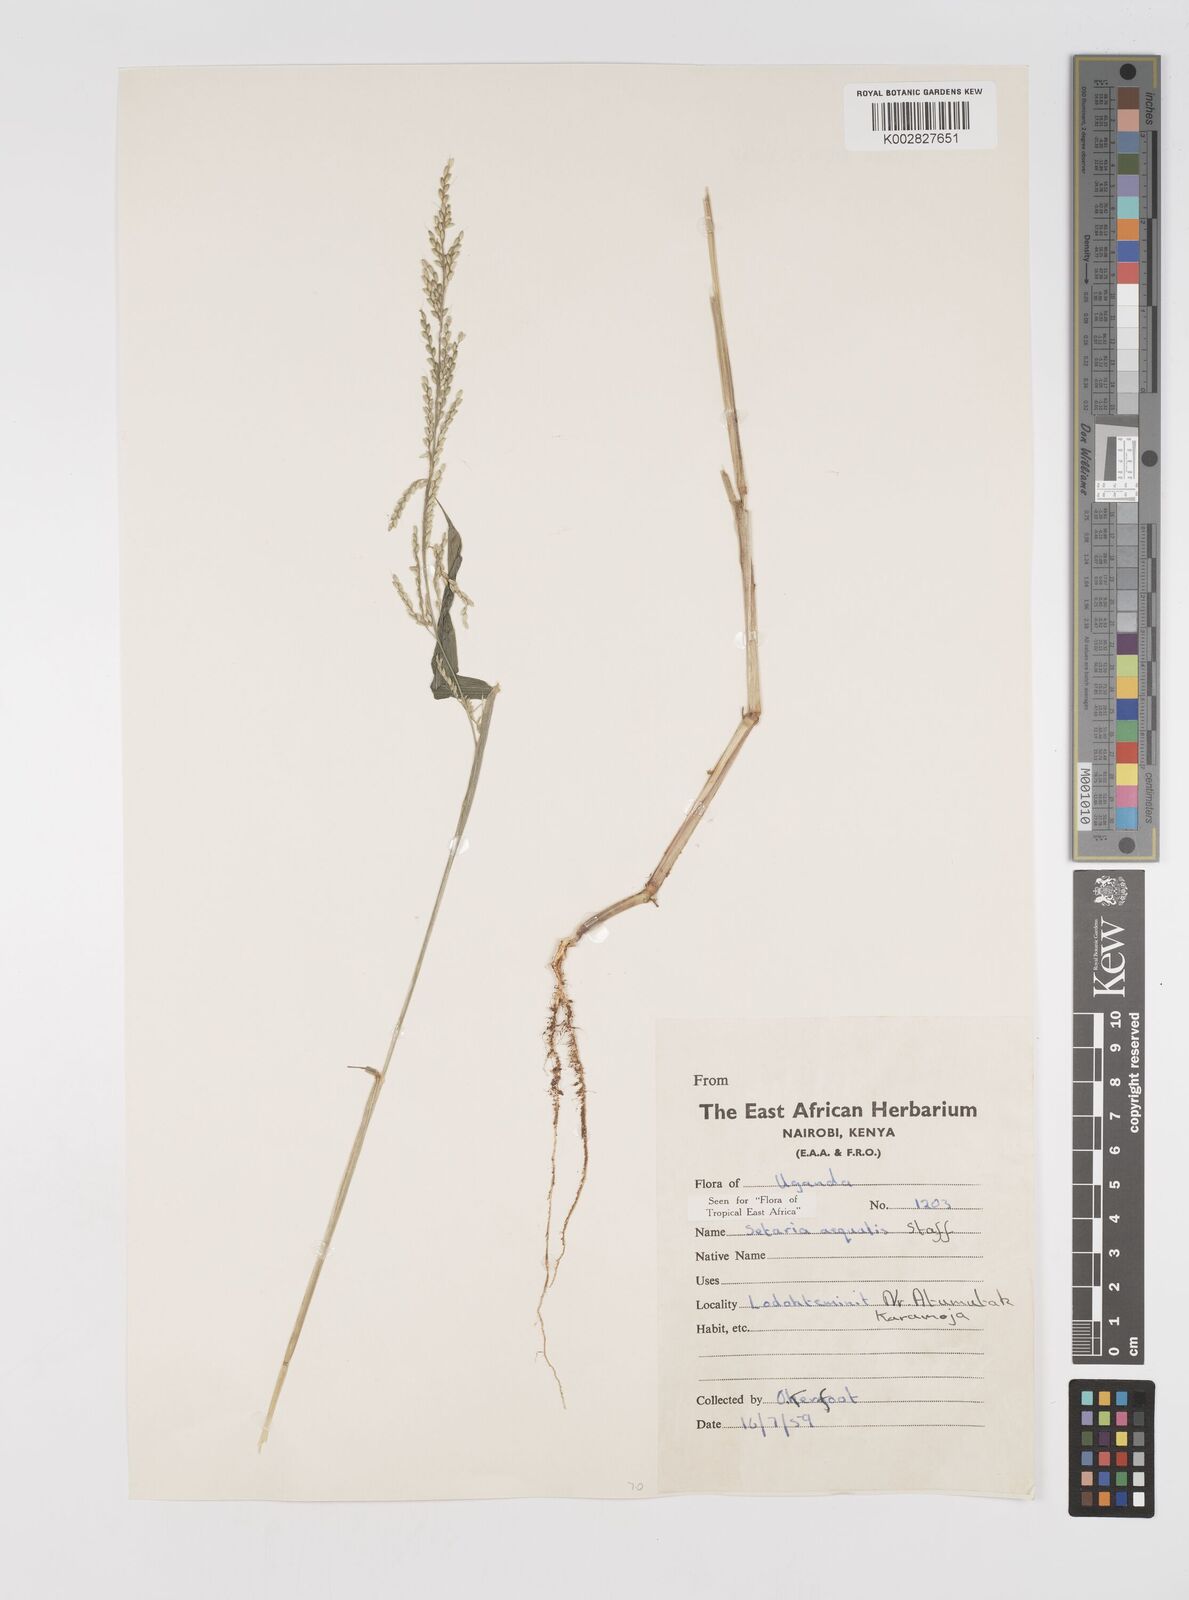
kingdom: Plantae
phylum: Tracheophyta
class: Liliopsida
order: Poales
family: Poaceae
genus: Setaria
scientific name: Setaria homonyma
